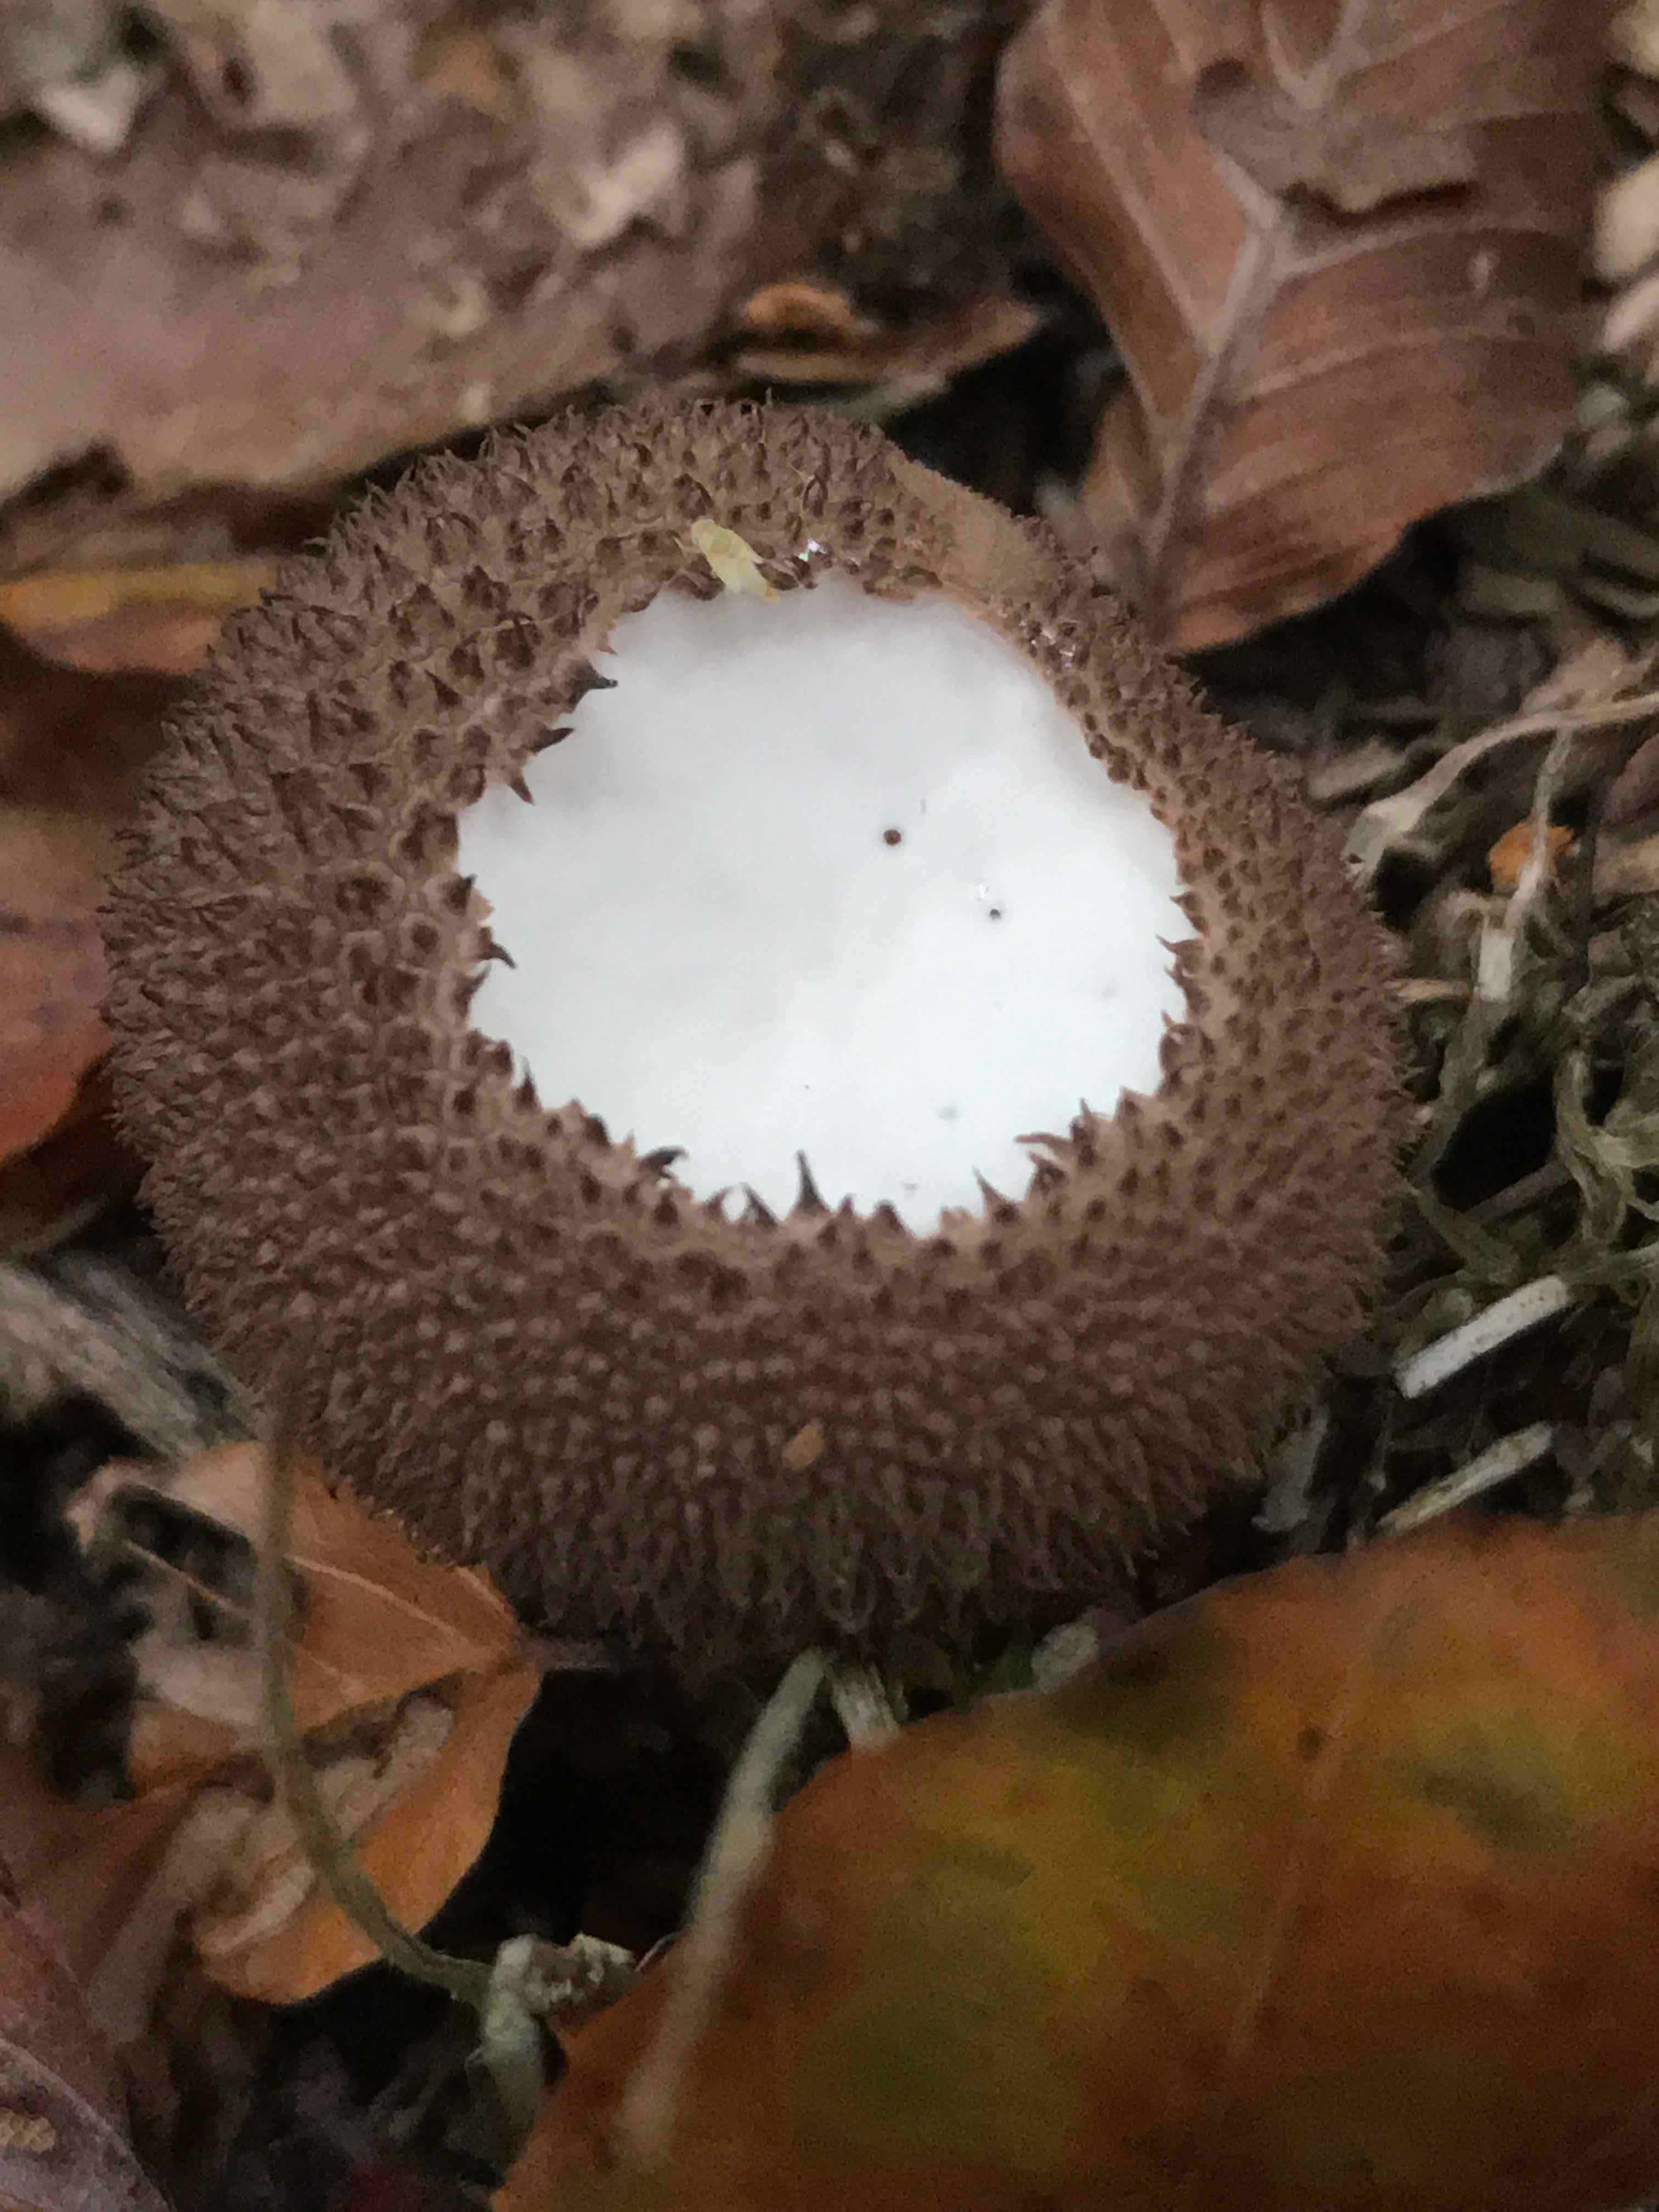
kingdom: Fungi
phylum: Basidiomycota
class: Agaricomycetes
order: Agaricales
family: Lycoperdaceae
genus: Lycoperdon
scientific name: Lycoperdon nigrescens
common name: sortagtig støvbold
